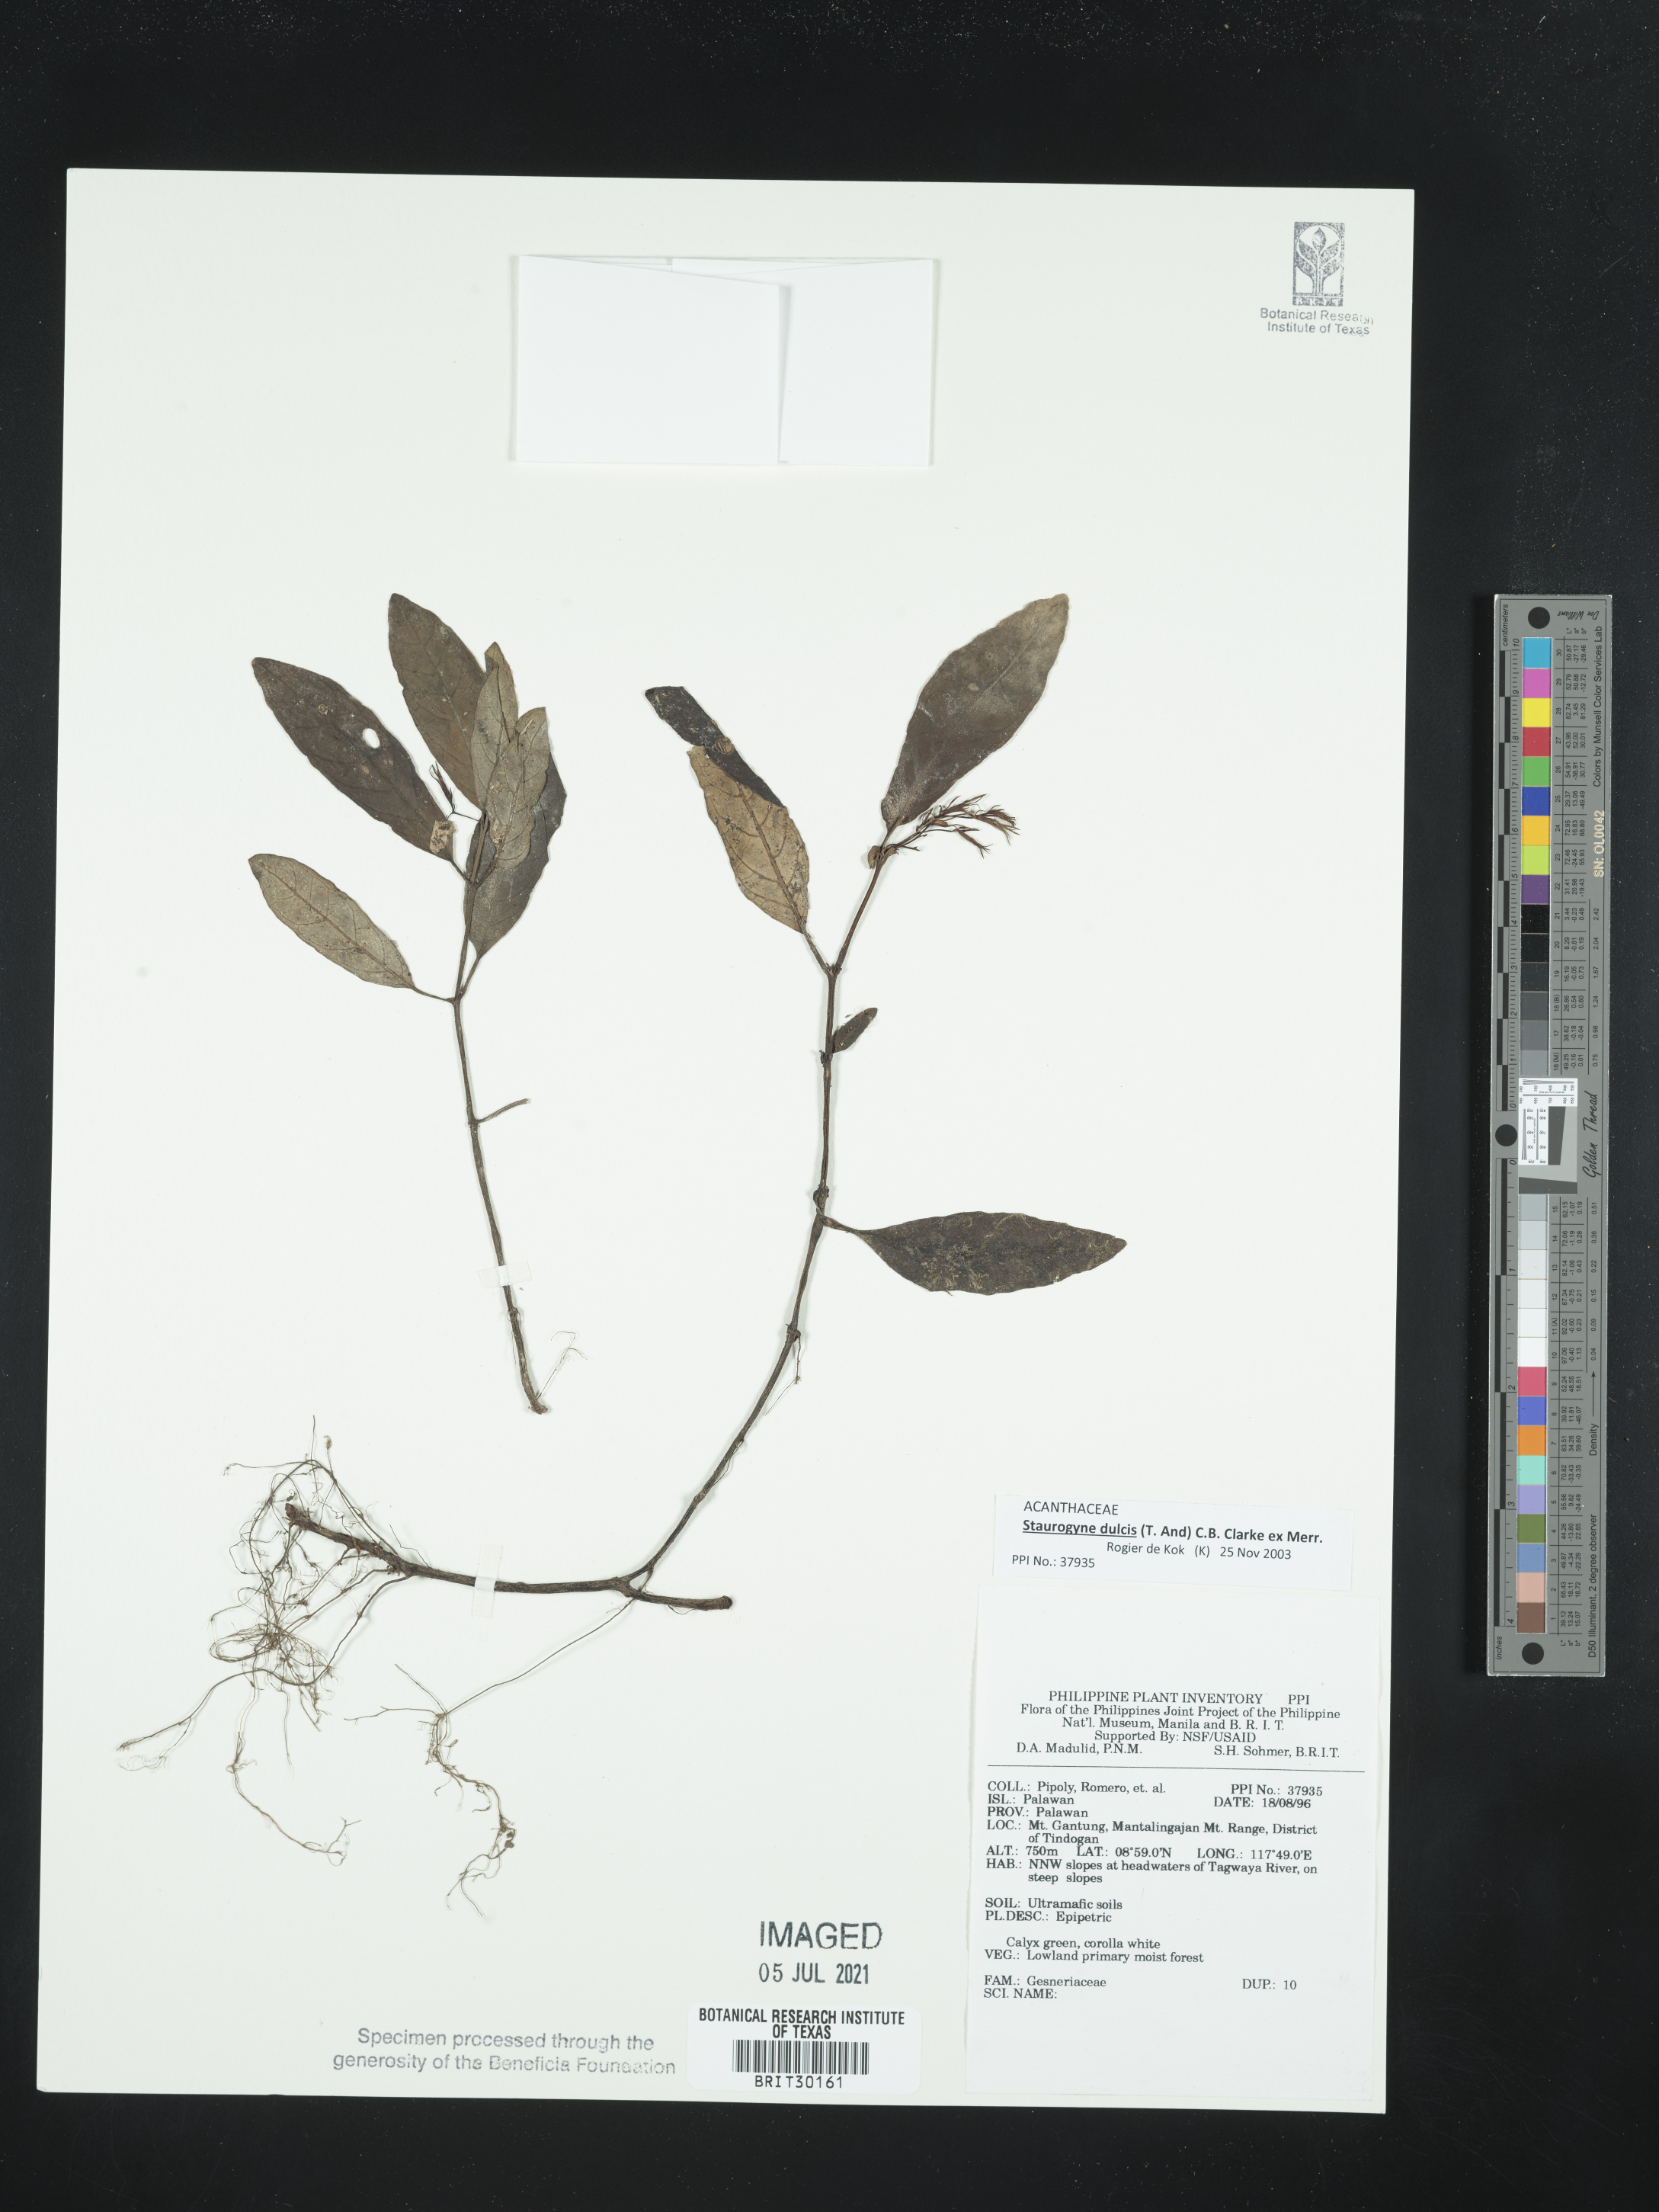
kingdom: Plantae
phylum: Tracheophyta
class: Magnoliopsida
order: Lamiales
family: Gesneriaceae
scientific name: Gesneriaceae
